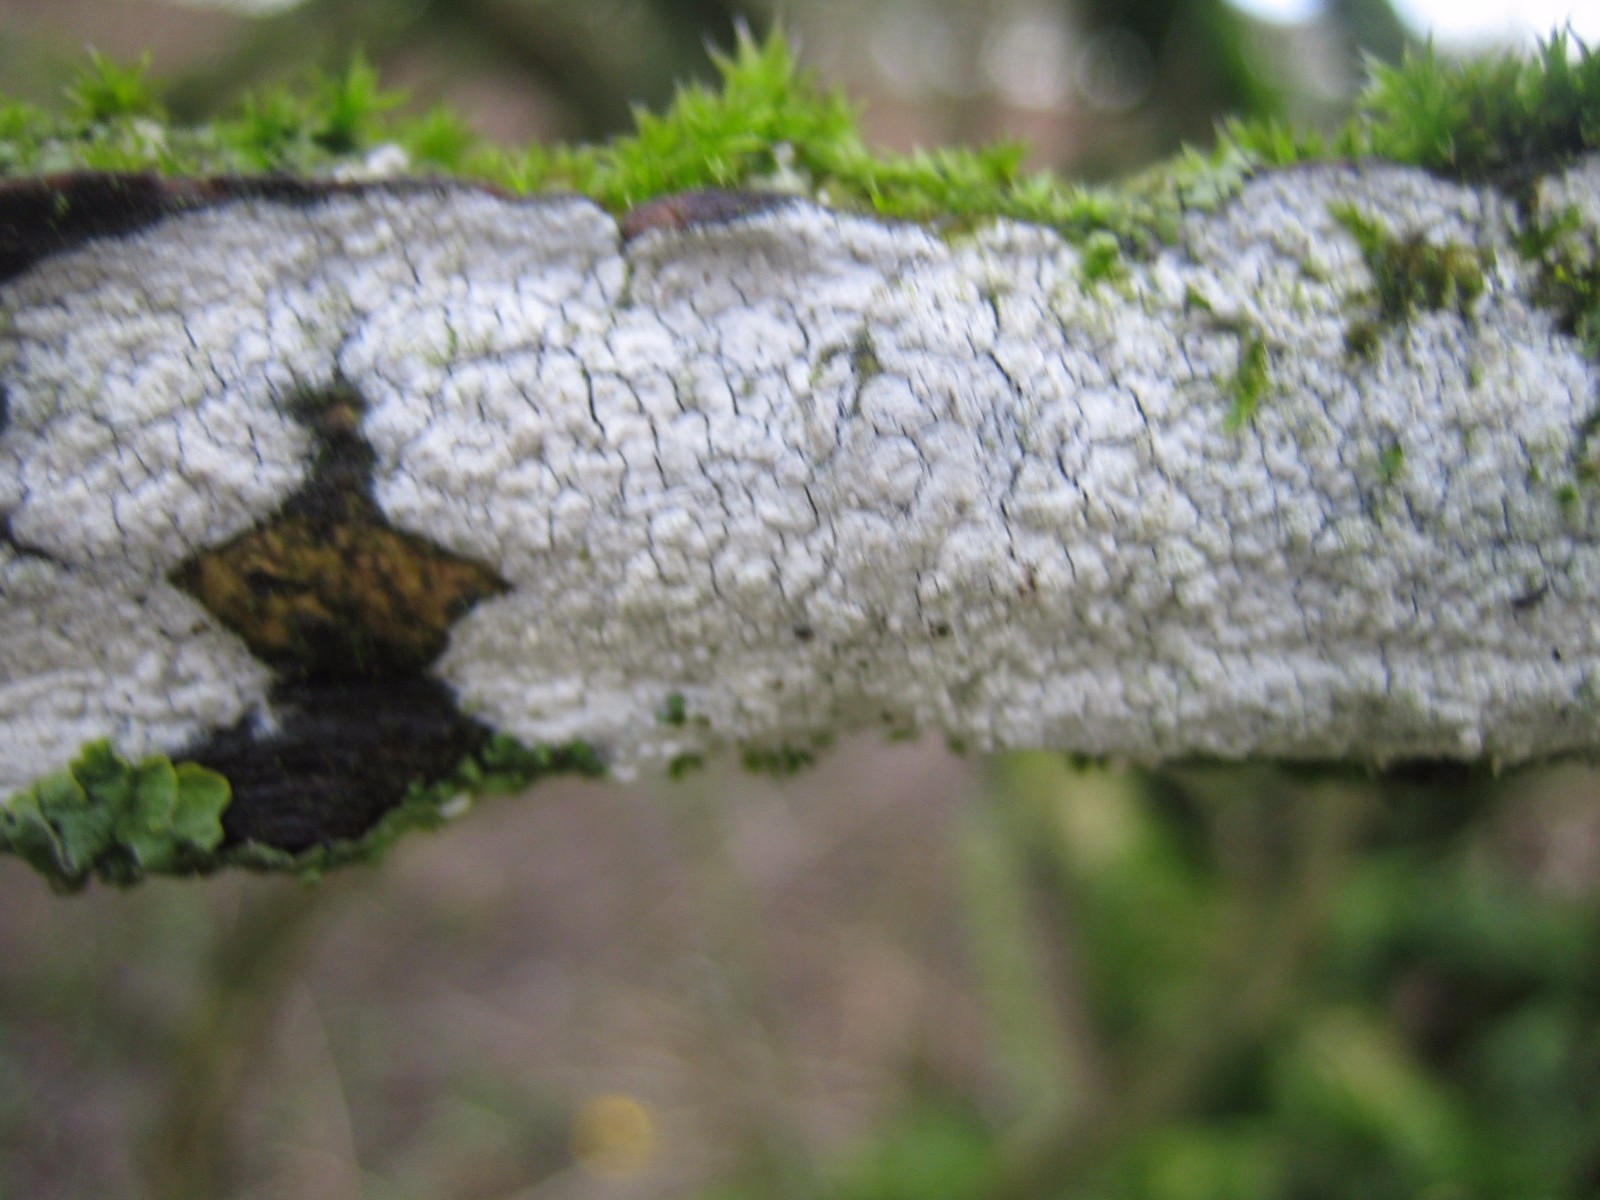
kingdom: Fungi
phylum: Basidiomycota
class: Agaricomycetes
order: Corticiales
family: Corticiaceae
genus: Lyomyces
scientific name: Lyomyces sambuci
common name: almindelig hyldehinde
